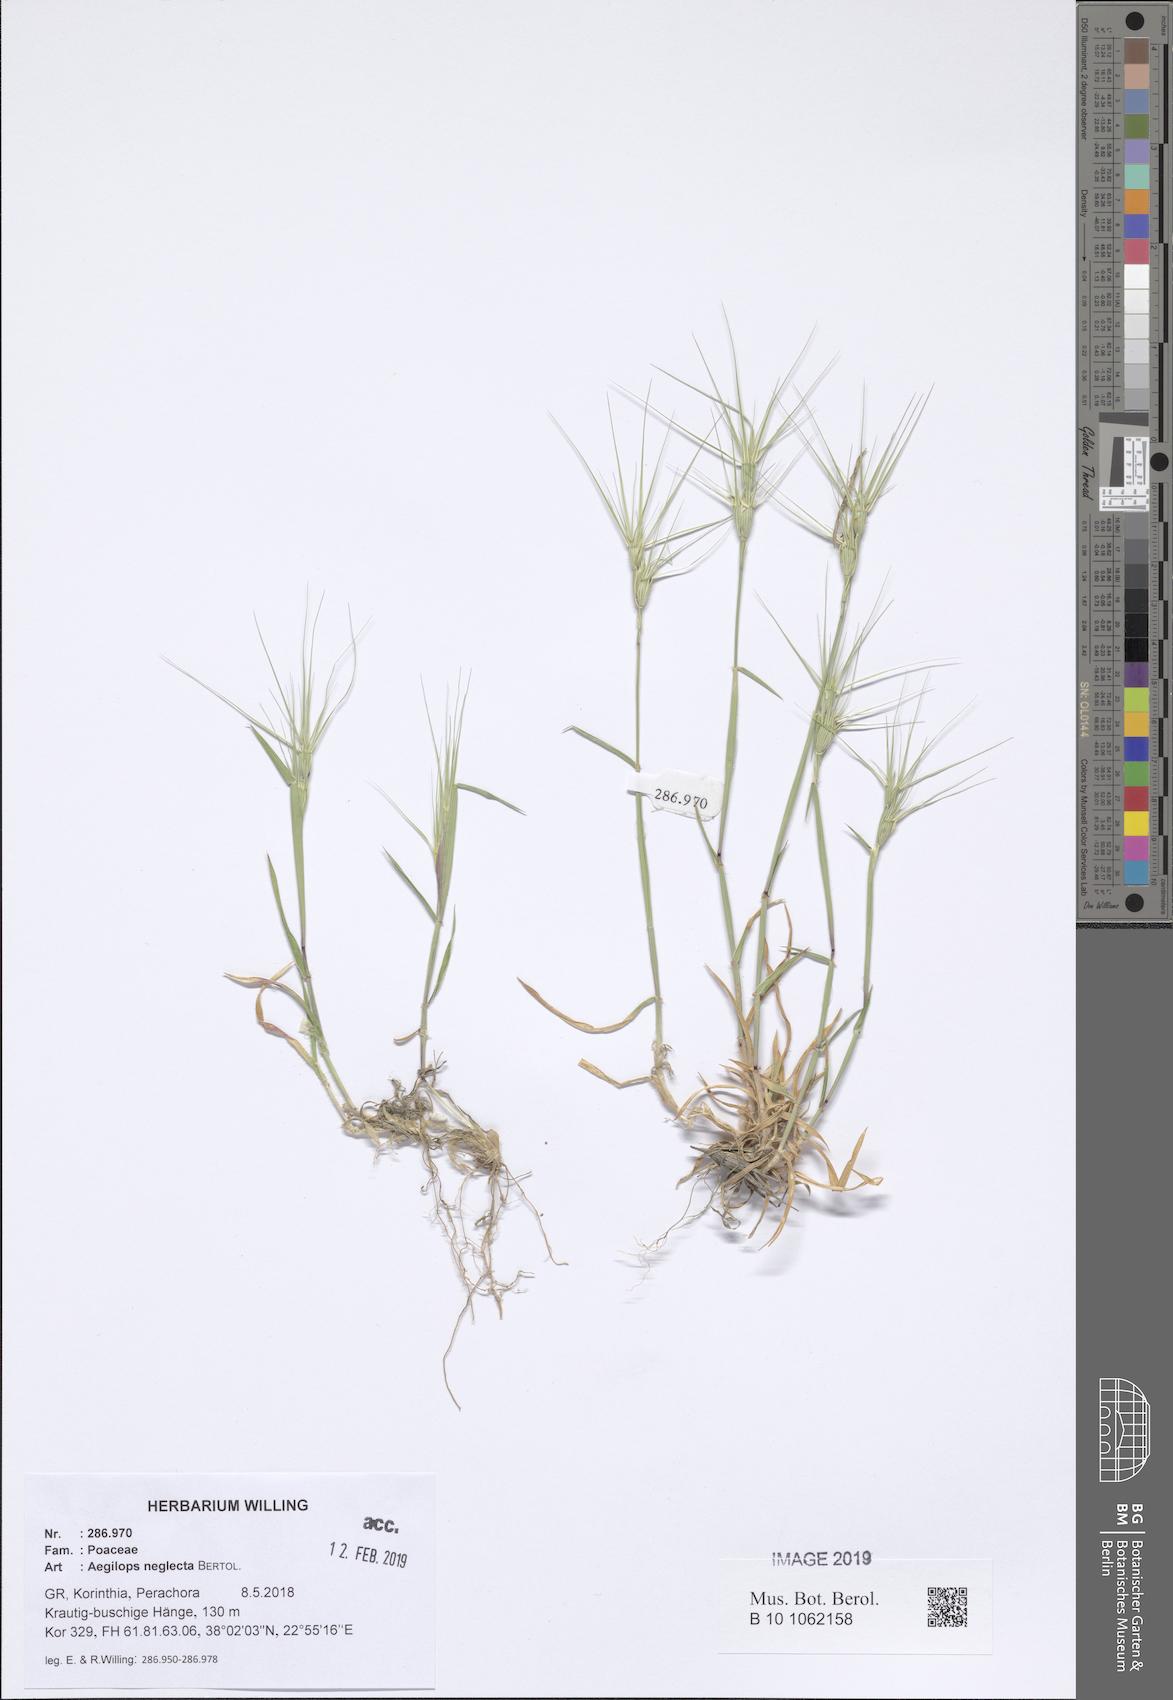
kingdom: Plantae
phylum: Tracheophyta
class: Liliopsida
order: Poales
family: Poaceae
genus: Aegilops
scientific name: Aegilops neglecta
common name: Three-awn goat grass
